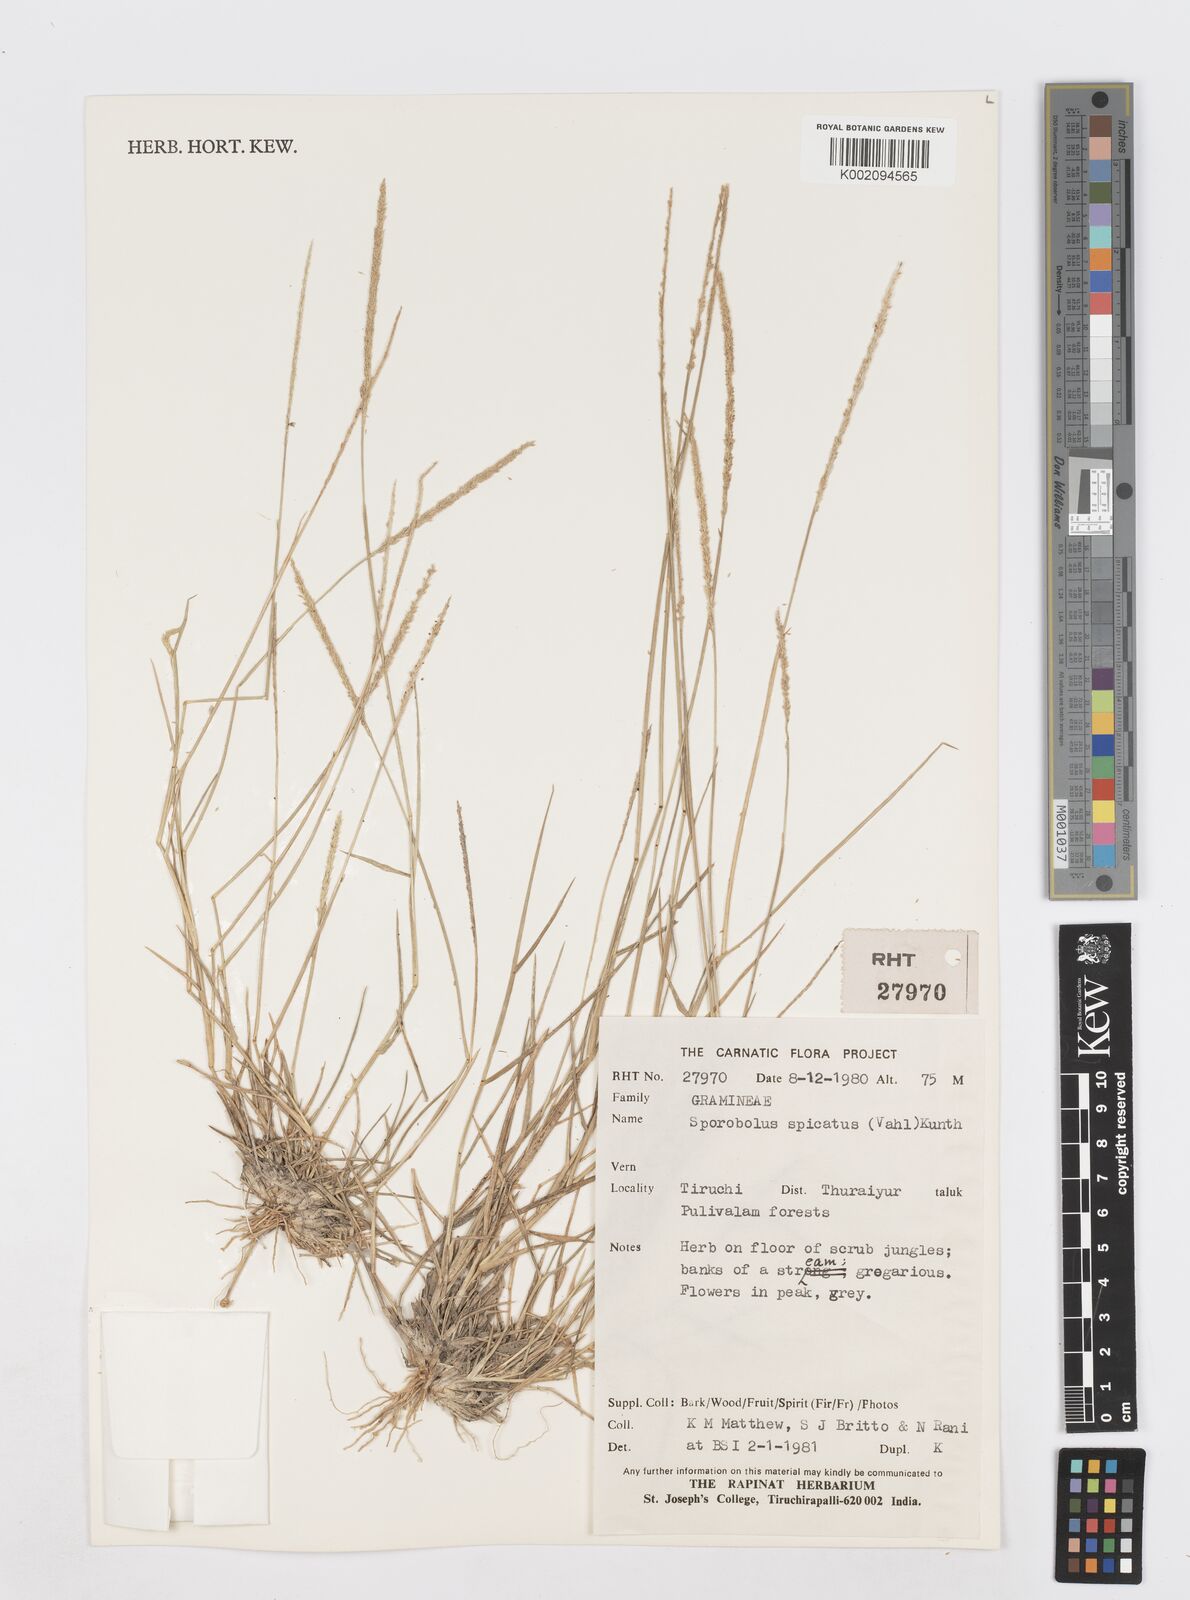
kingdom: Plantae
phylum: Tracheophyta
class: Liliopsida
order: Poales
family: Poaceae
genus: Sporobolus
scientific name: Sporobolus spicatus
